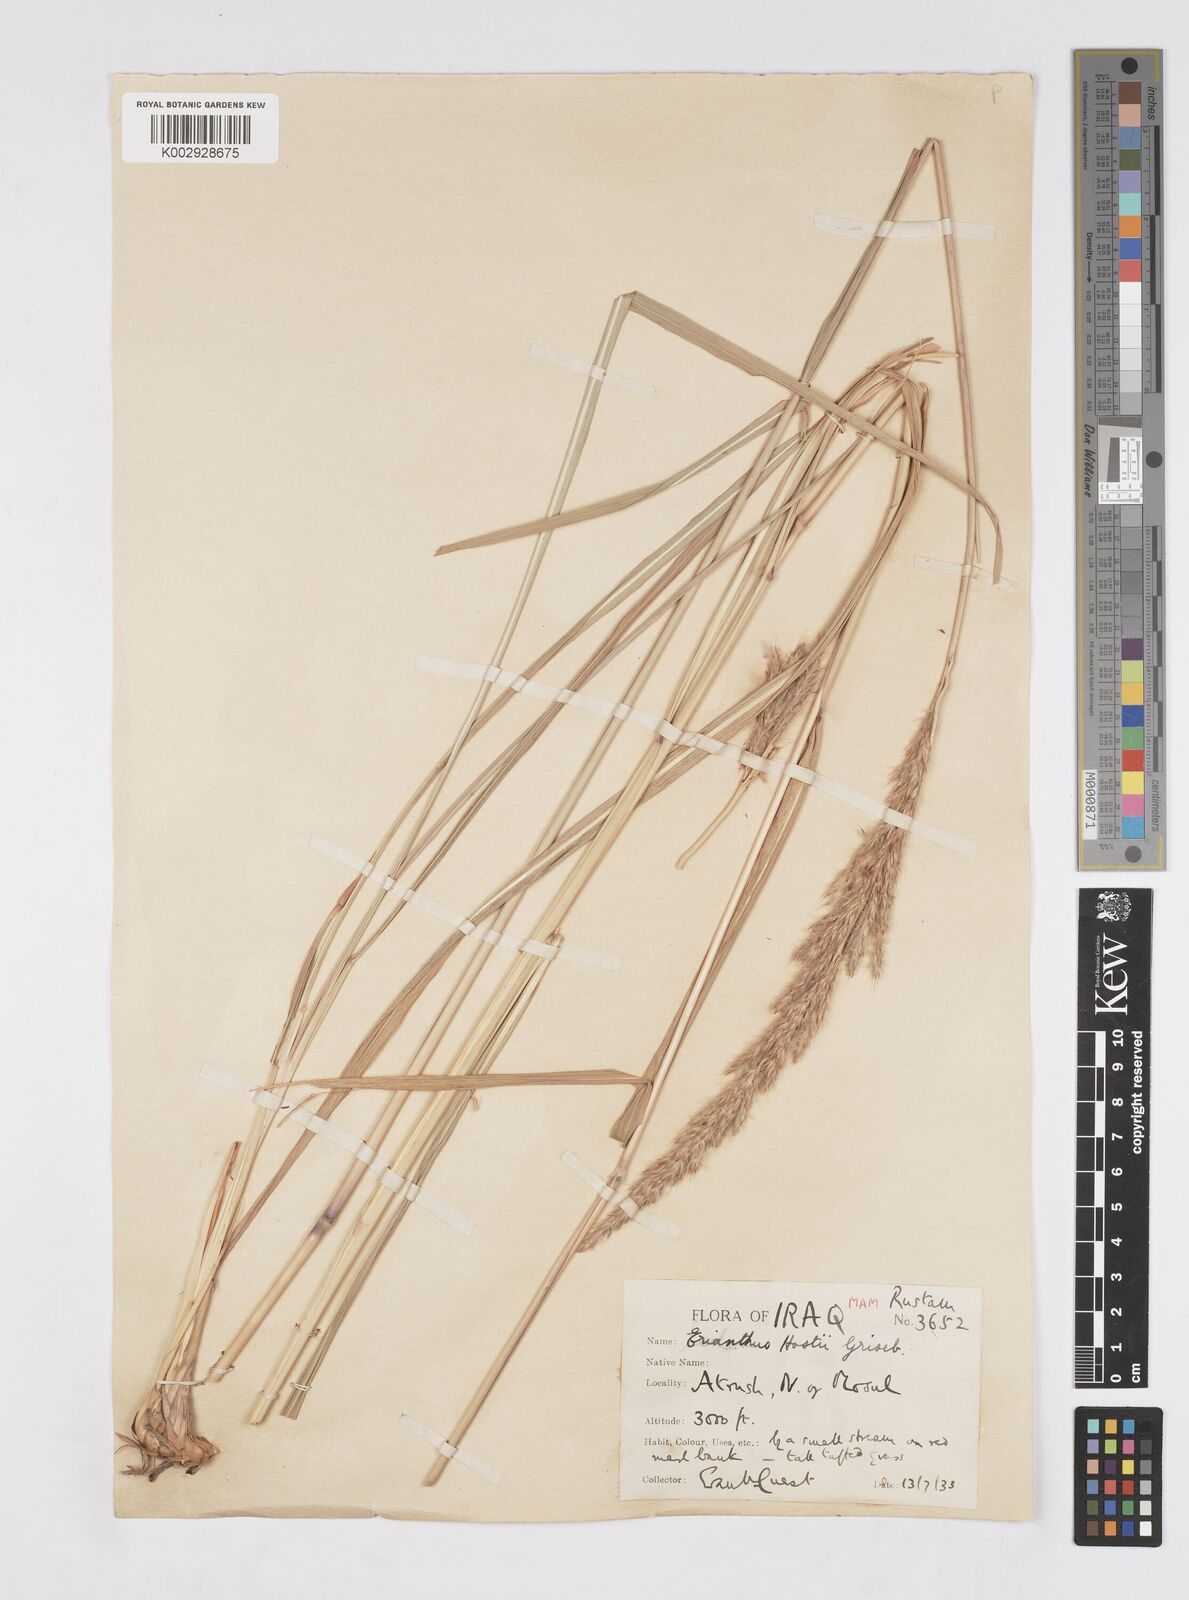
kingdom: Plantae
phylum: Tracheophyta
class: Liliopsida
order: Poales
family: Poaceae
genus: Tripidium
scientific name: Tripidium strictum
